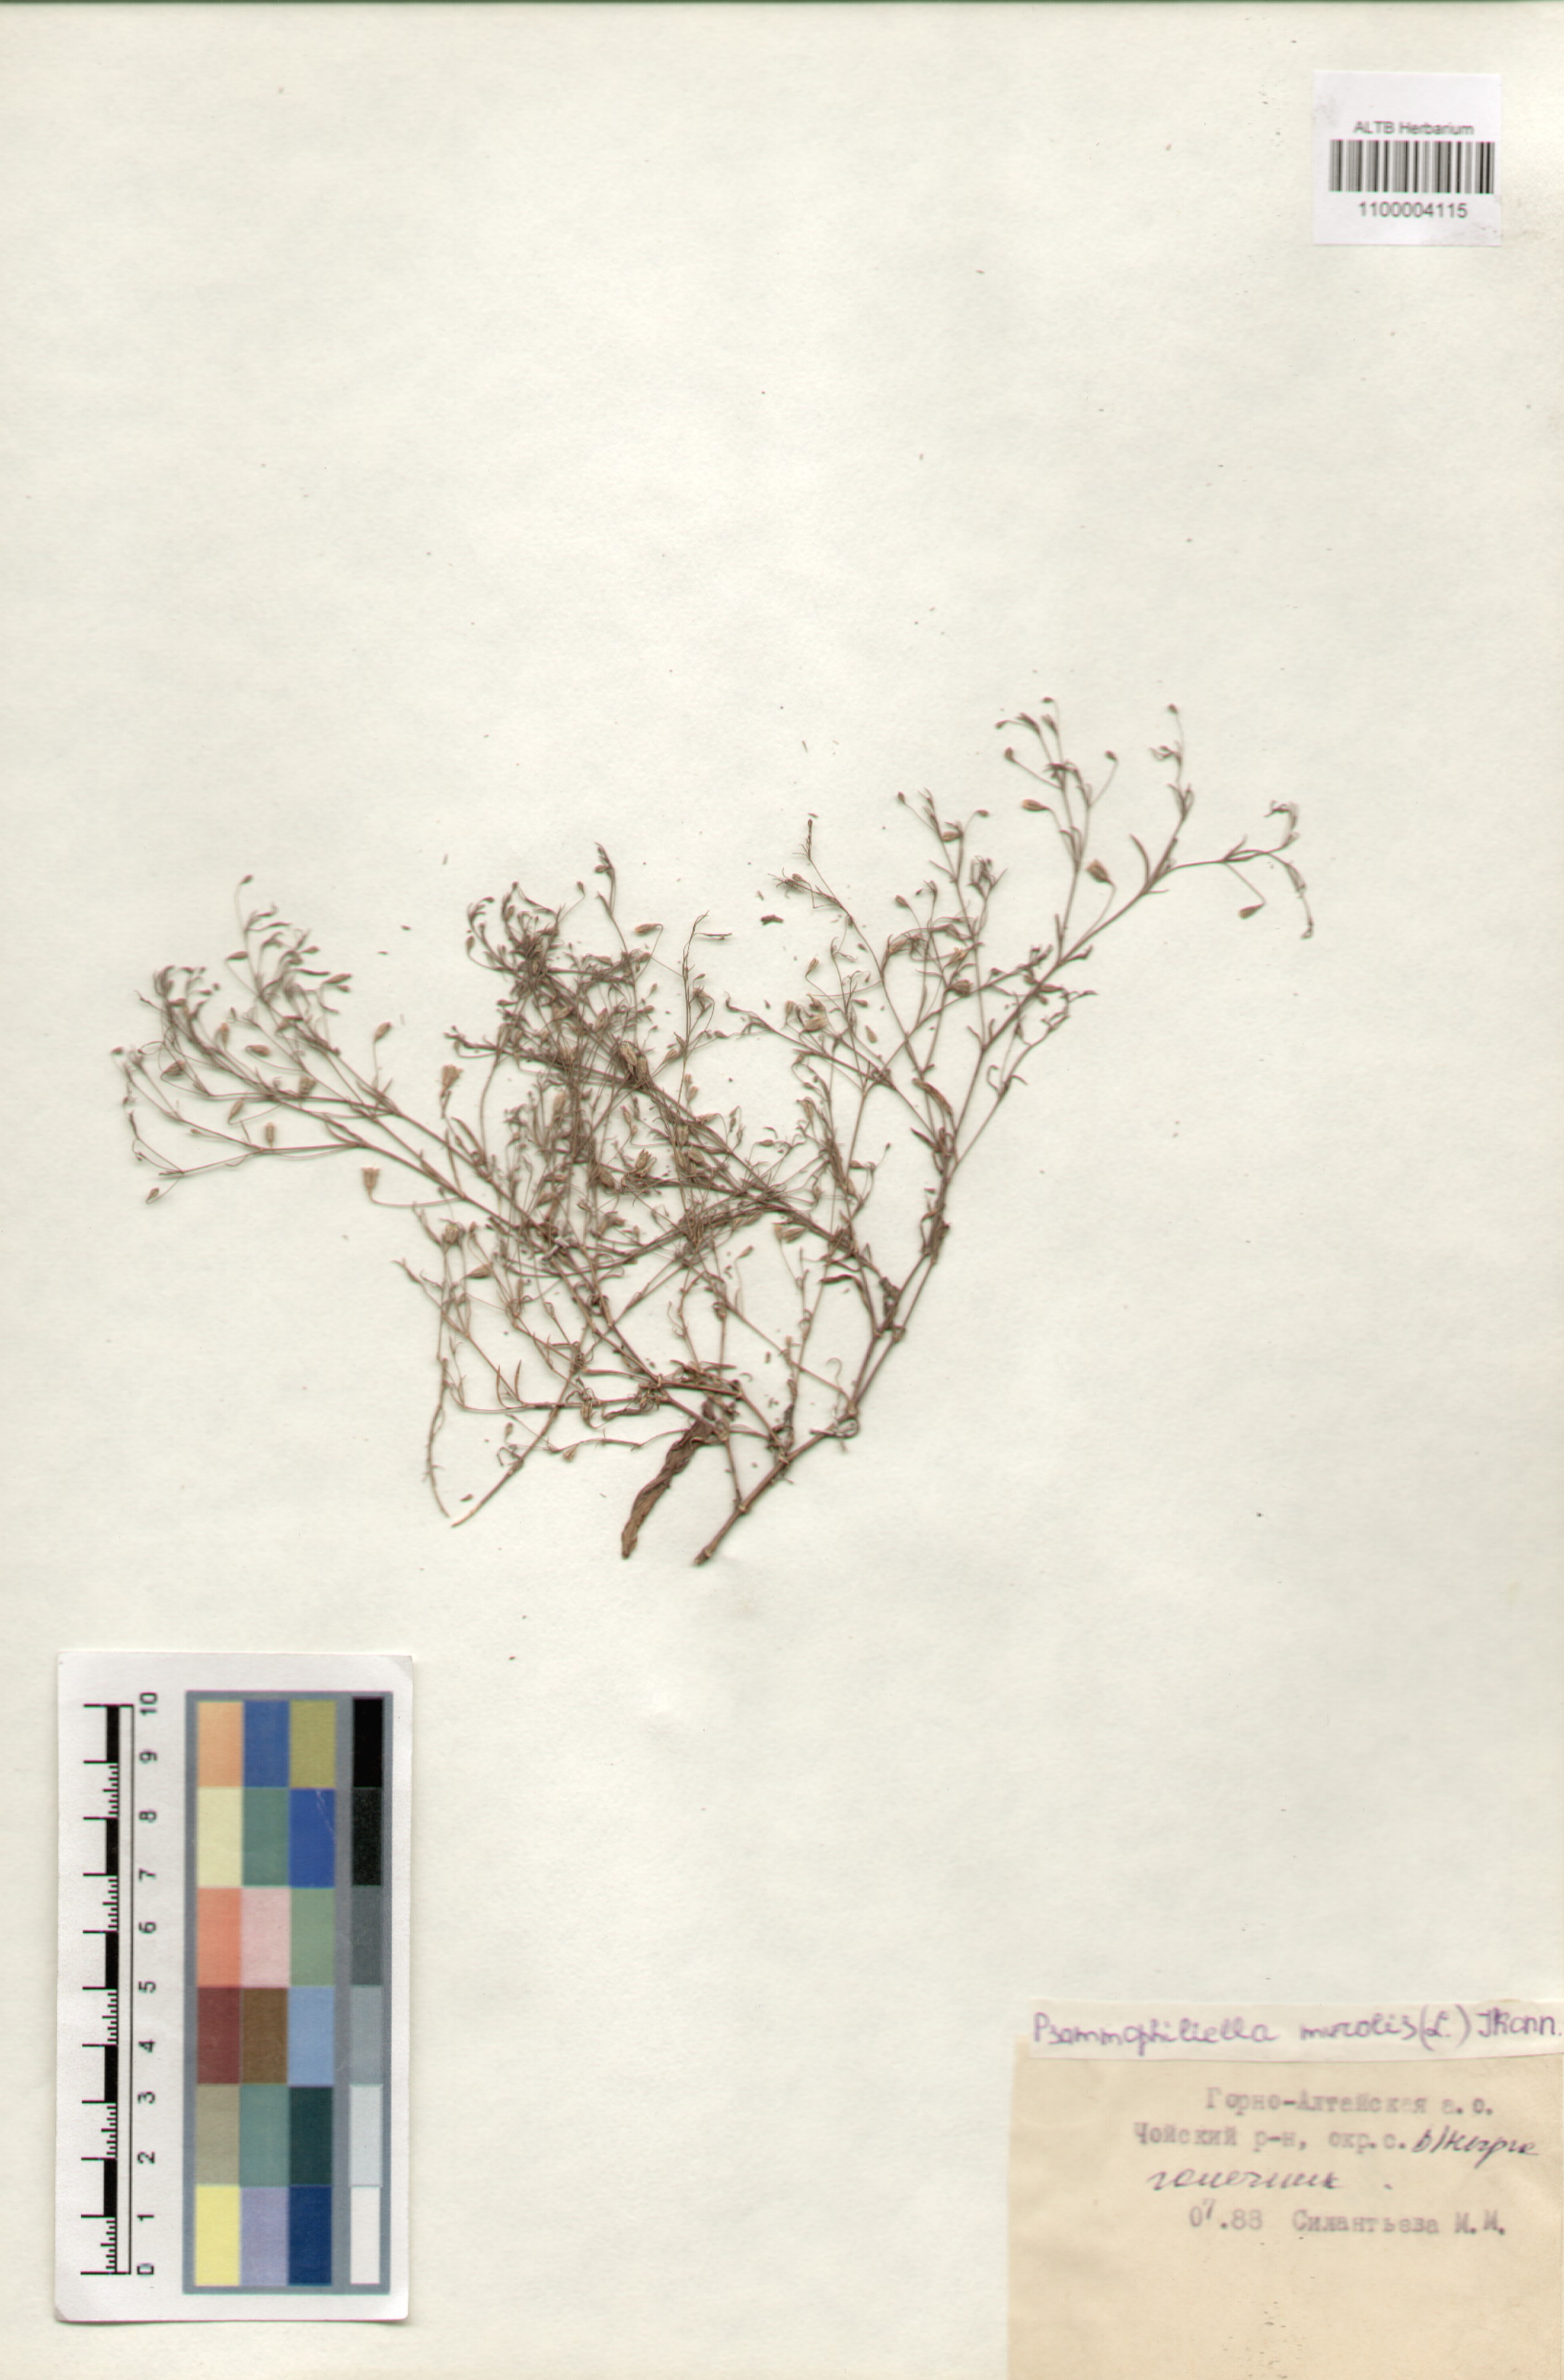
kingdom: Plantae
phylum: Tracheophyta
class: Magnoliopsida
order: Caryophyllales
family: Caryophyllaceae
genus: Psammophiliella
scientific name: Psammophiliella muralis
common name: Cushion baby's-breath
